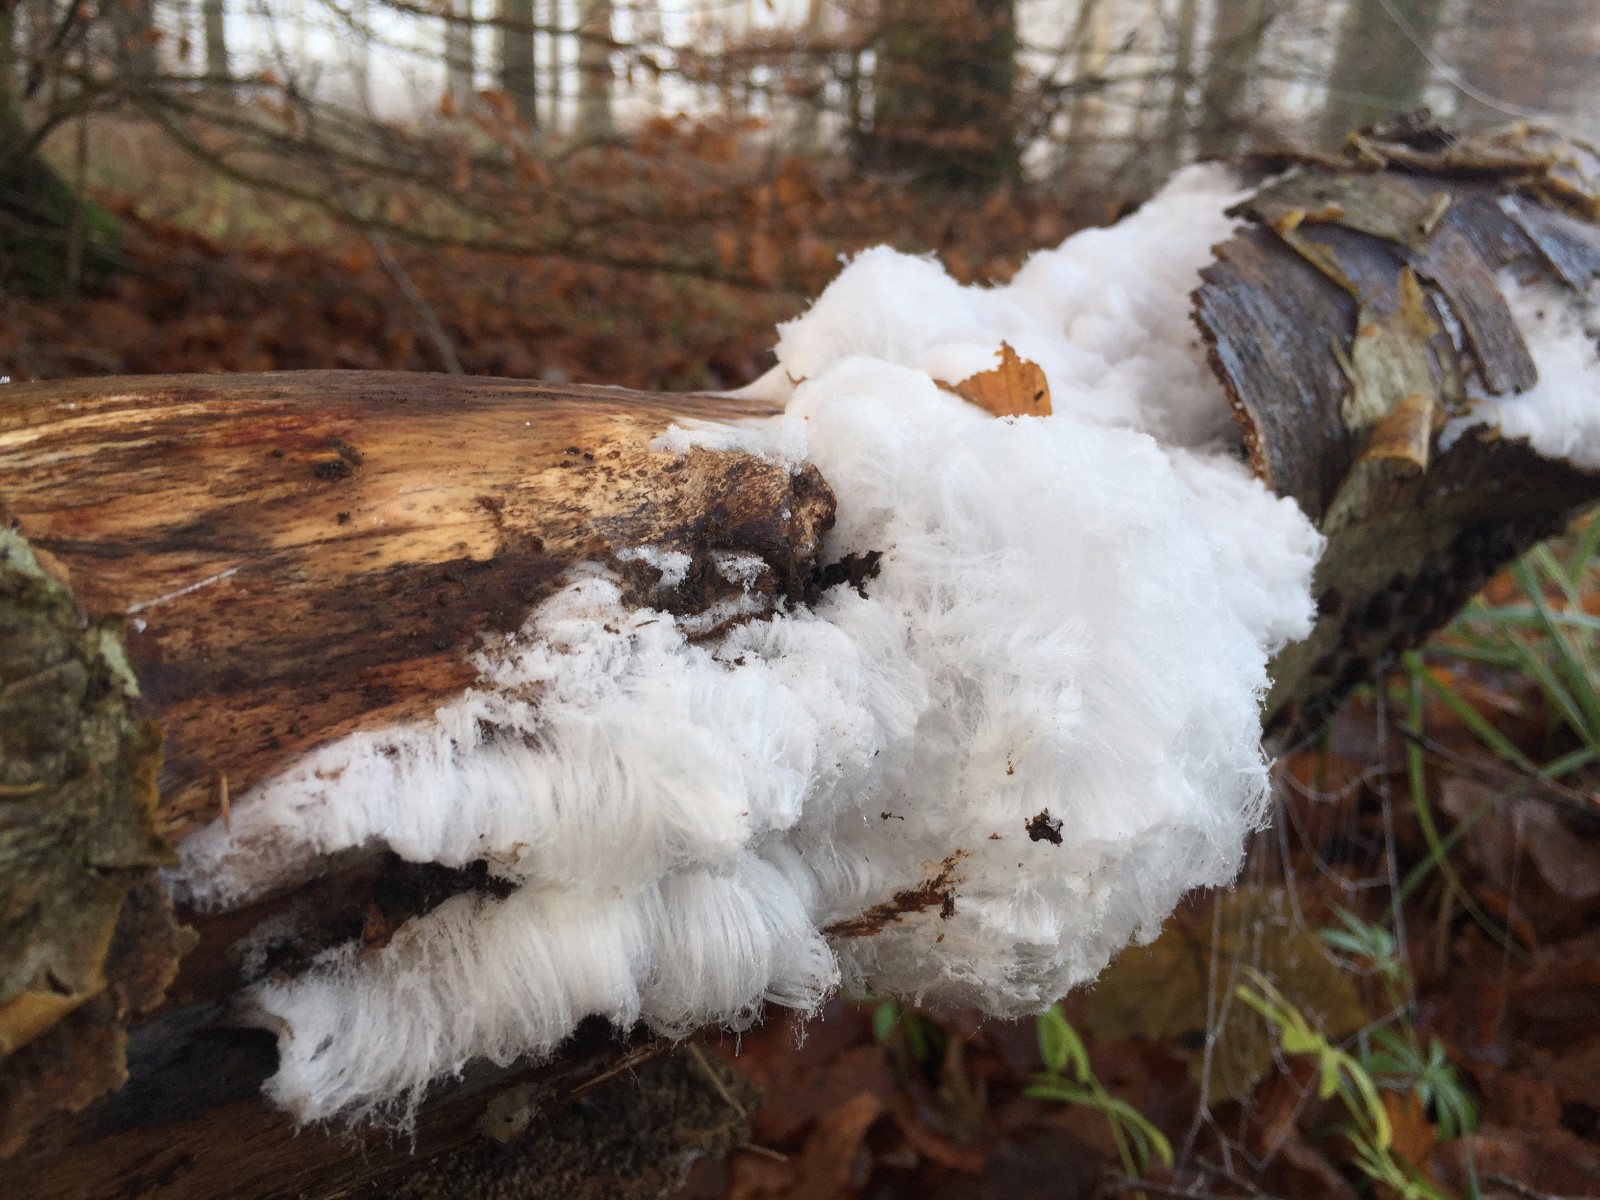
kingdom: Fungi
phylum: Basidiomycota
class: Tremellomycetes
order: Tremellales
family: Exidiaceae
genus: Exidiopsis
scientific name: Exidiopsis effusa
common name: smuk bævrehinde
